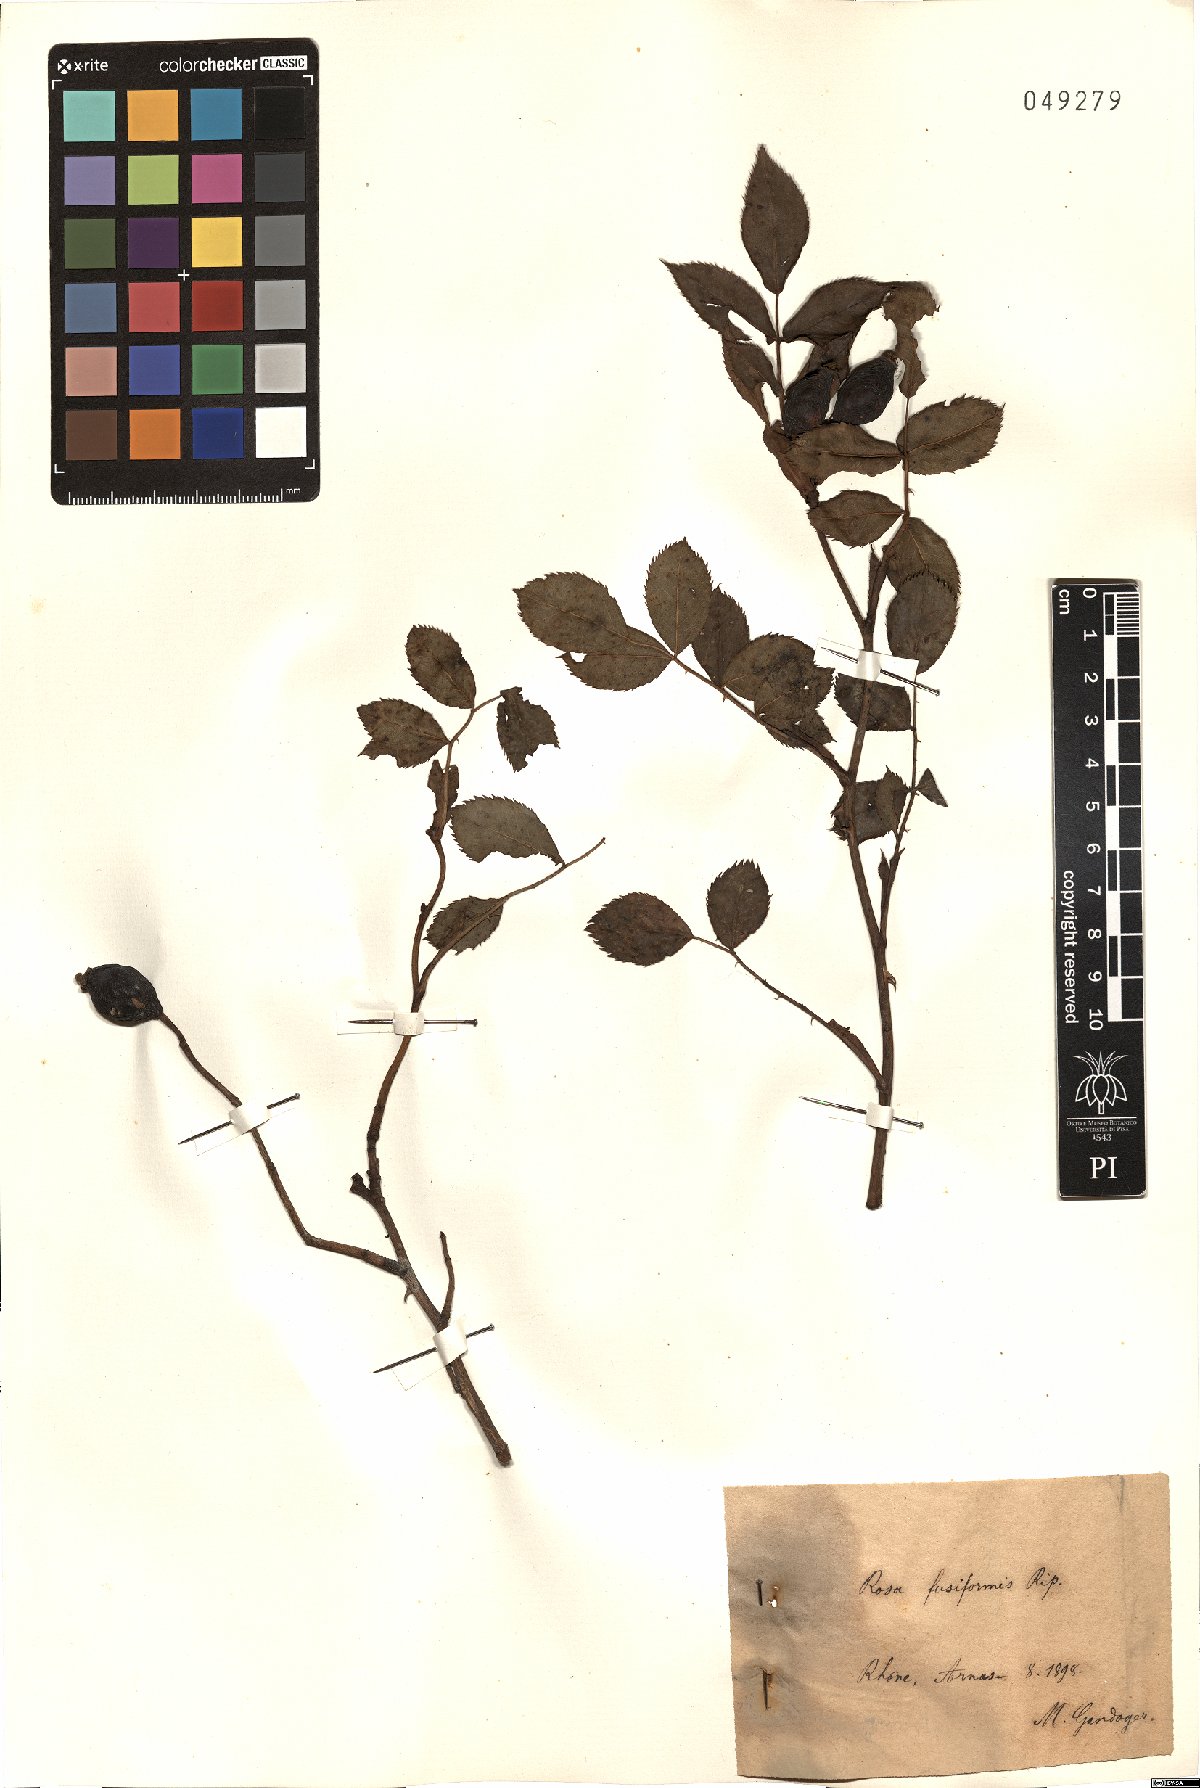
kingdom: Plantae
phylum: Tracheophyta
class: Magnoliopsida
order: Rosales
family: Rosaceae
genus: Rosa
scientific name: Rosa fusiformis
